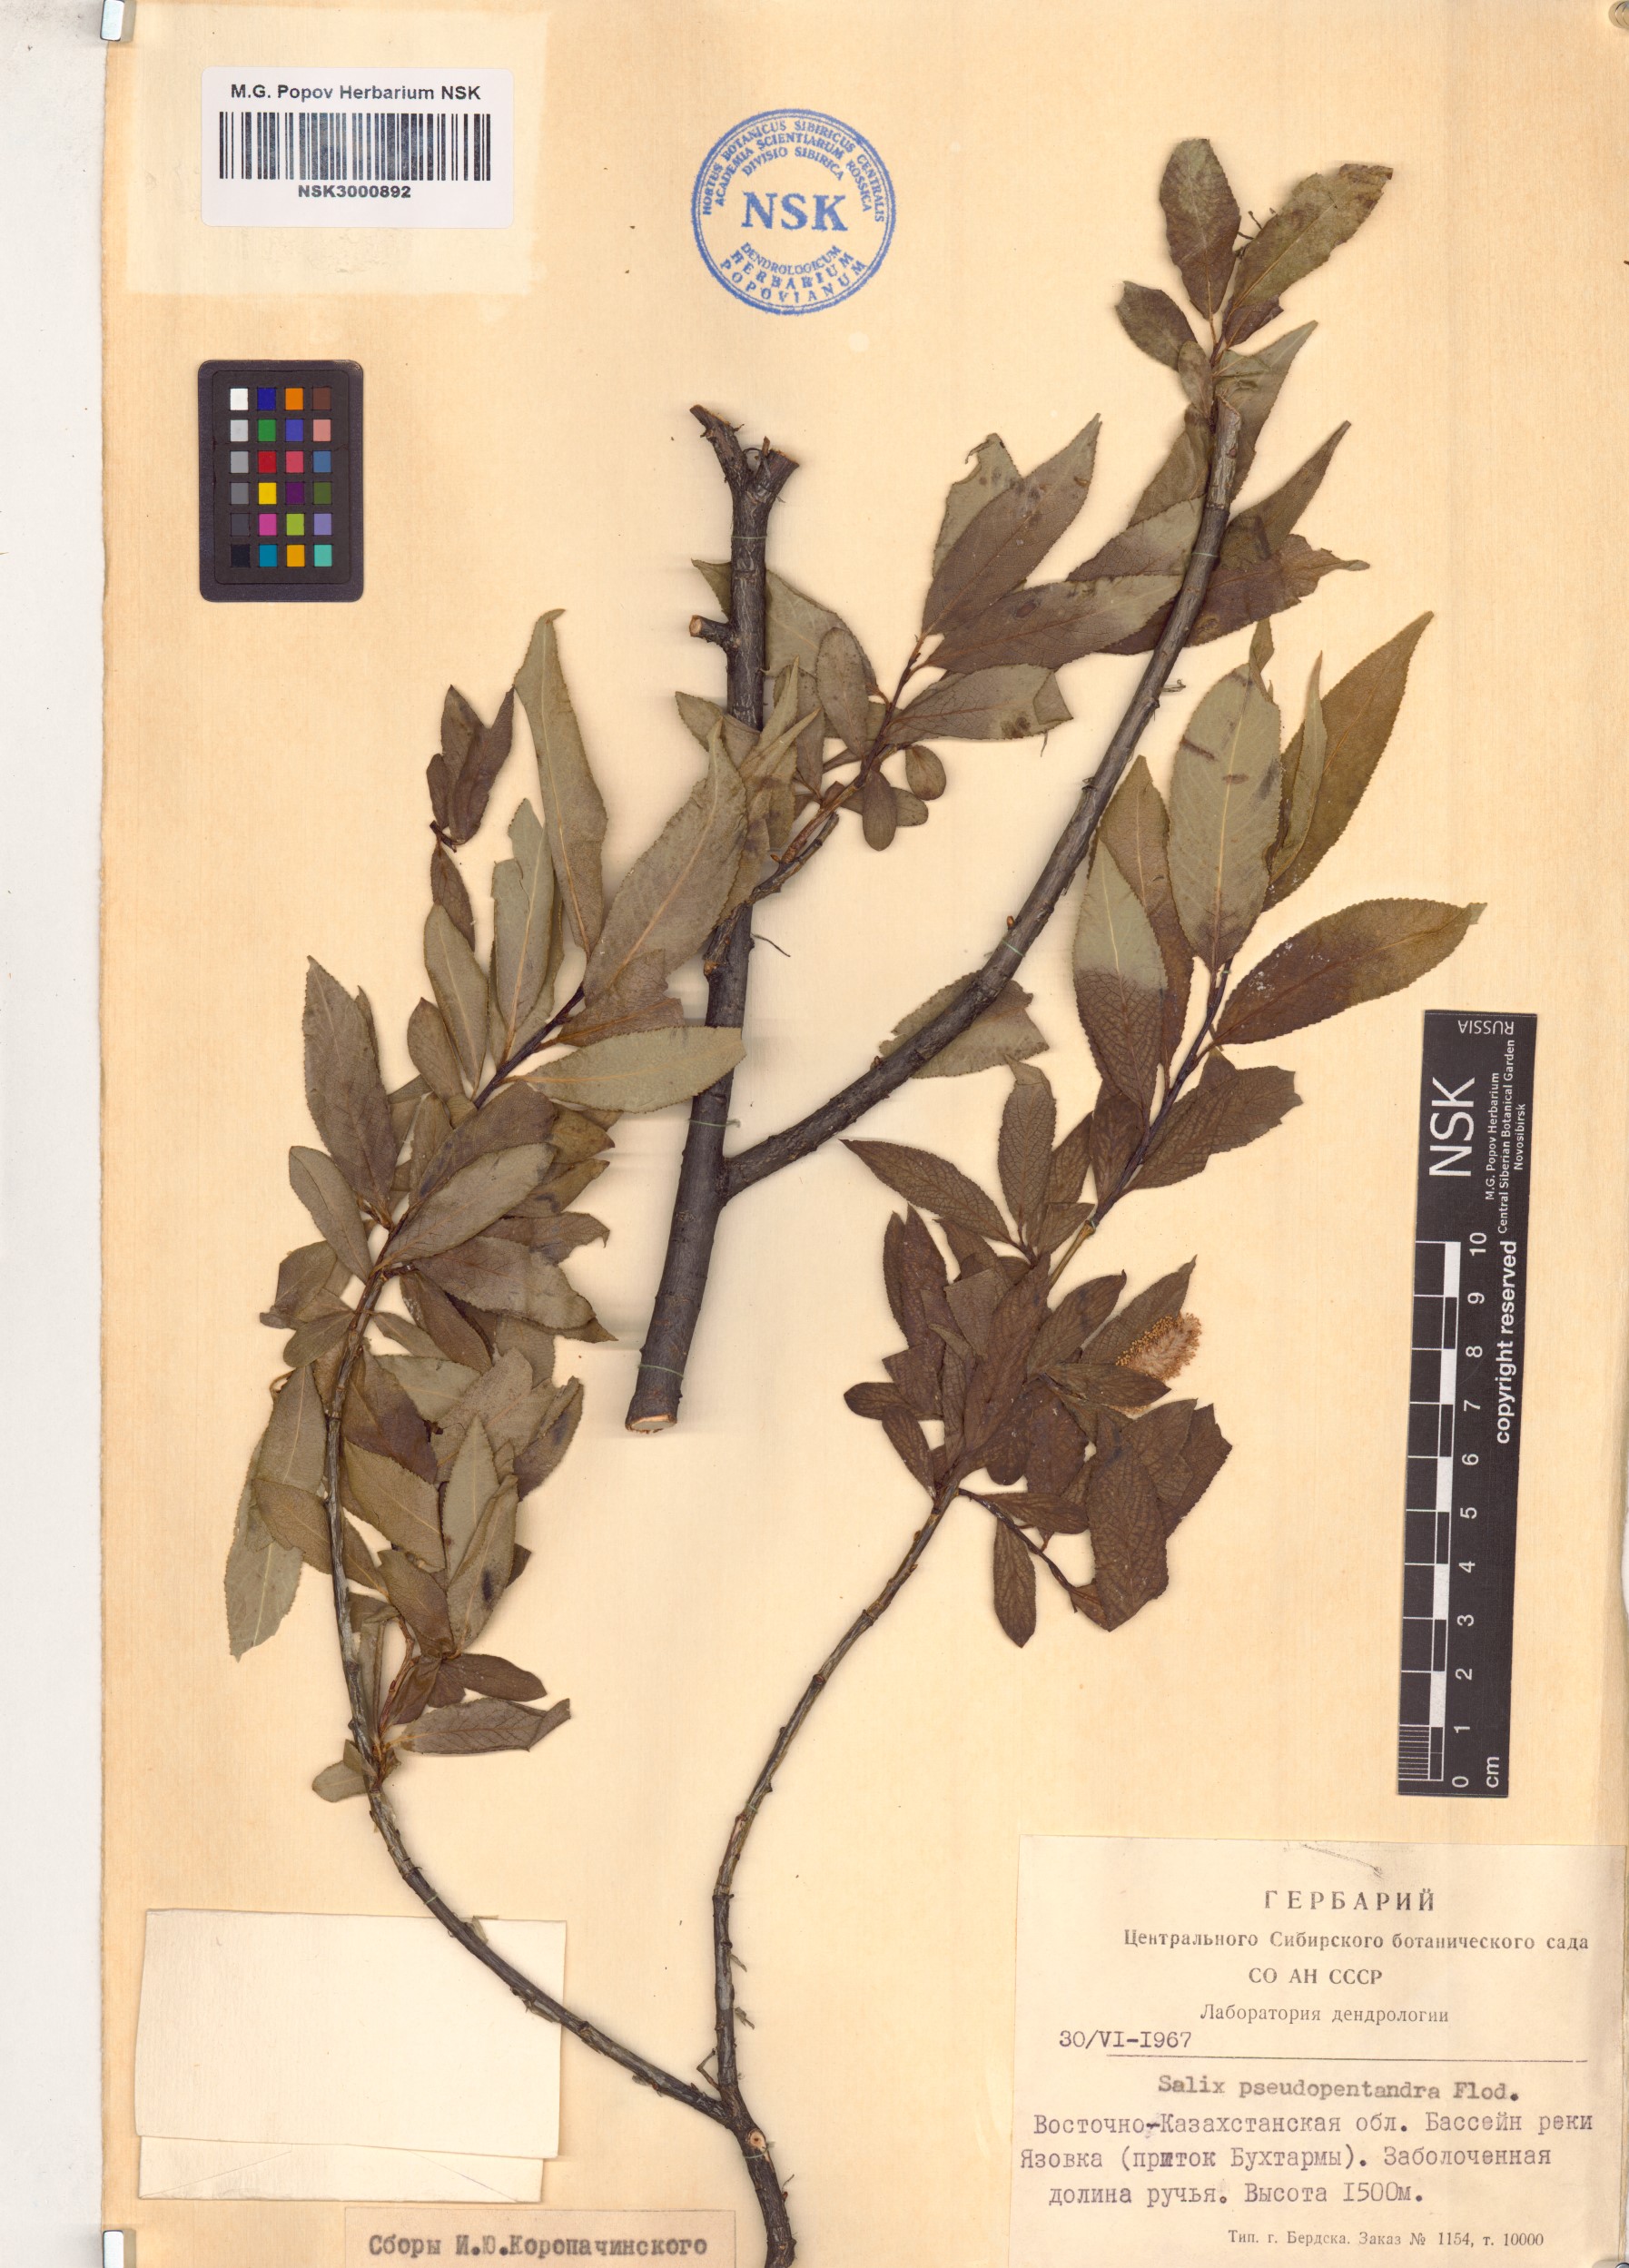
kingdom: Plantae
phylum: Tracheophyta
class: Magnoliopsida
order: Malpighiales
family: Salicaceae
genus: Salix
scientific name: Salix pseudopentandra
